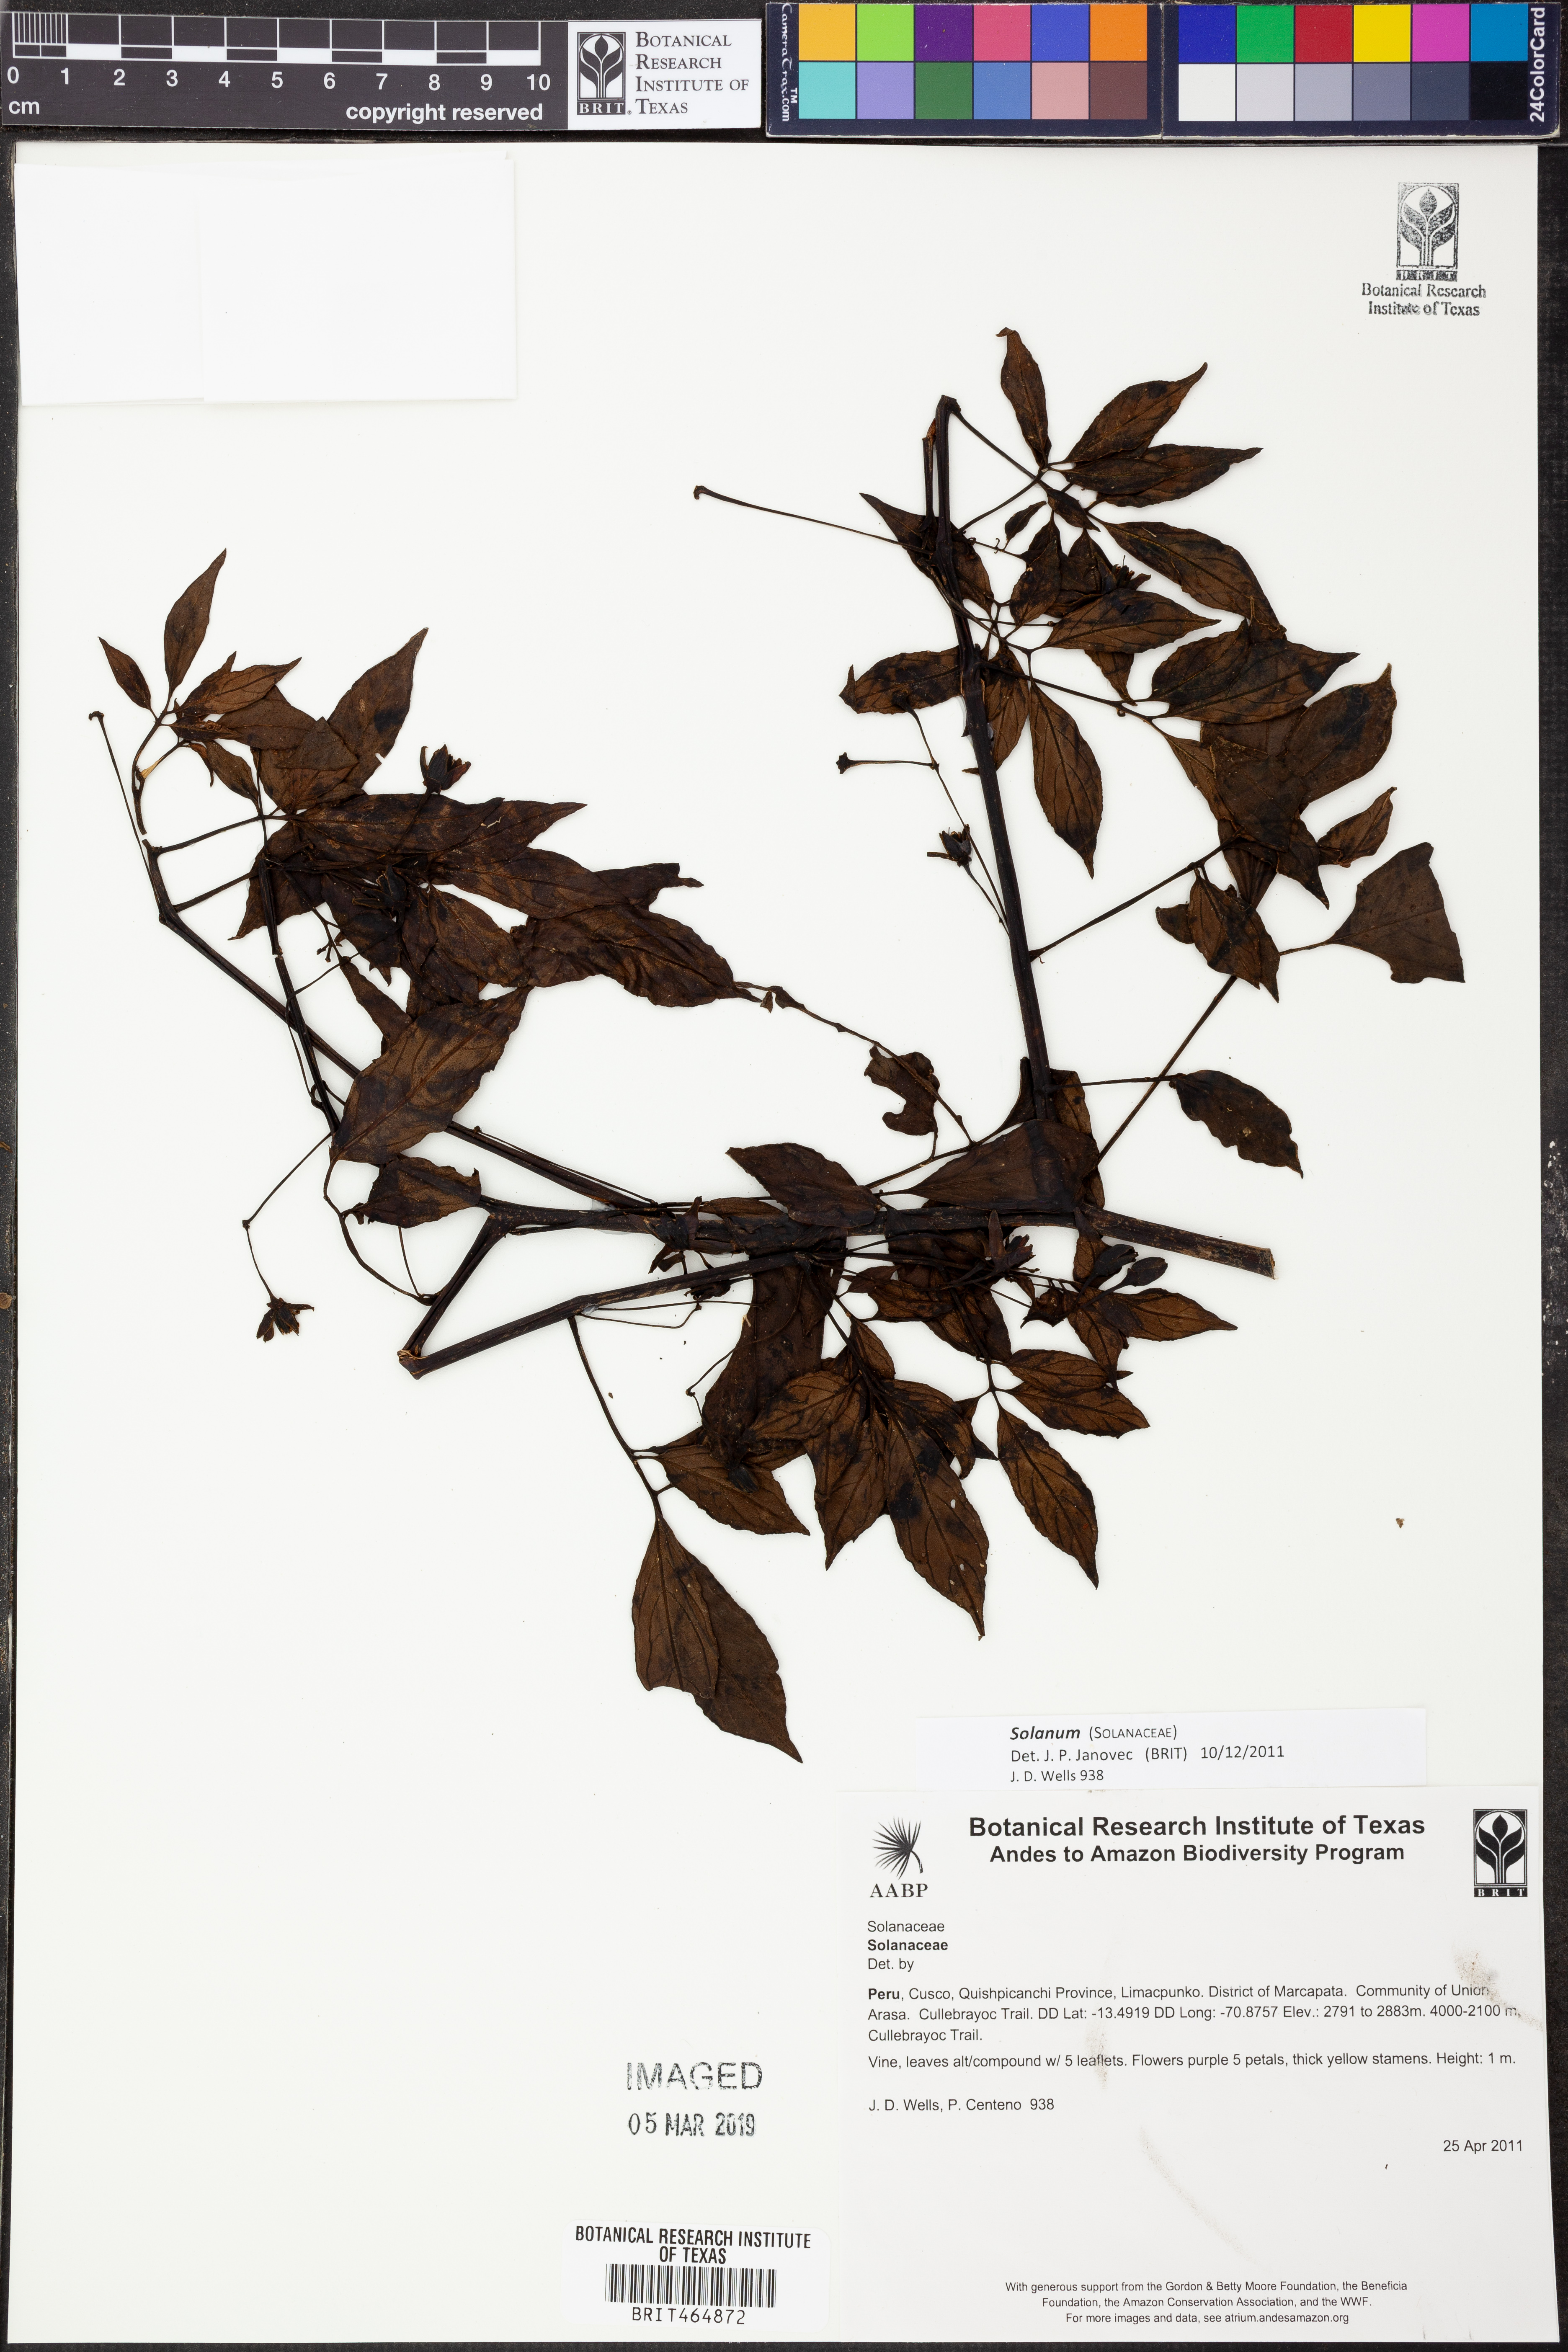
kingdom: Plantae
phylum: Tracheophyta
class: Magnoliopsida
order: Solanales
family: Solanaceae
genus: Solanum
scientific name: Solanum
